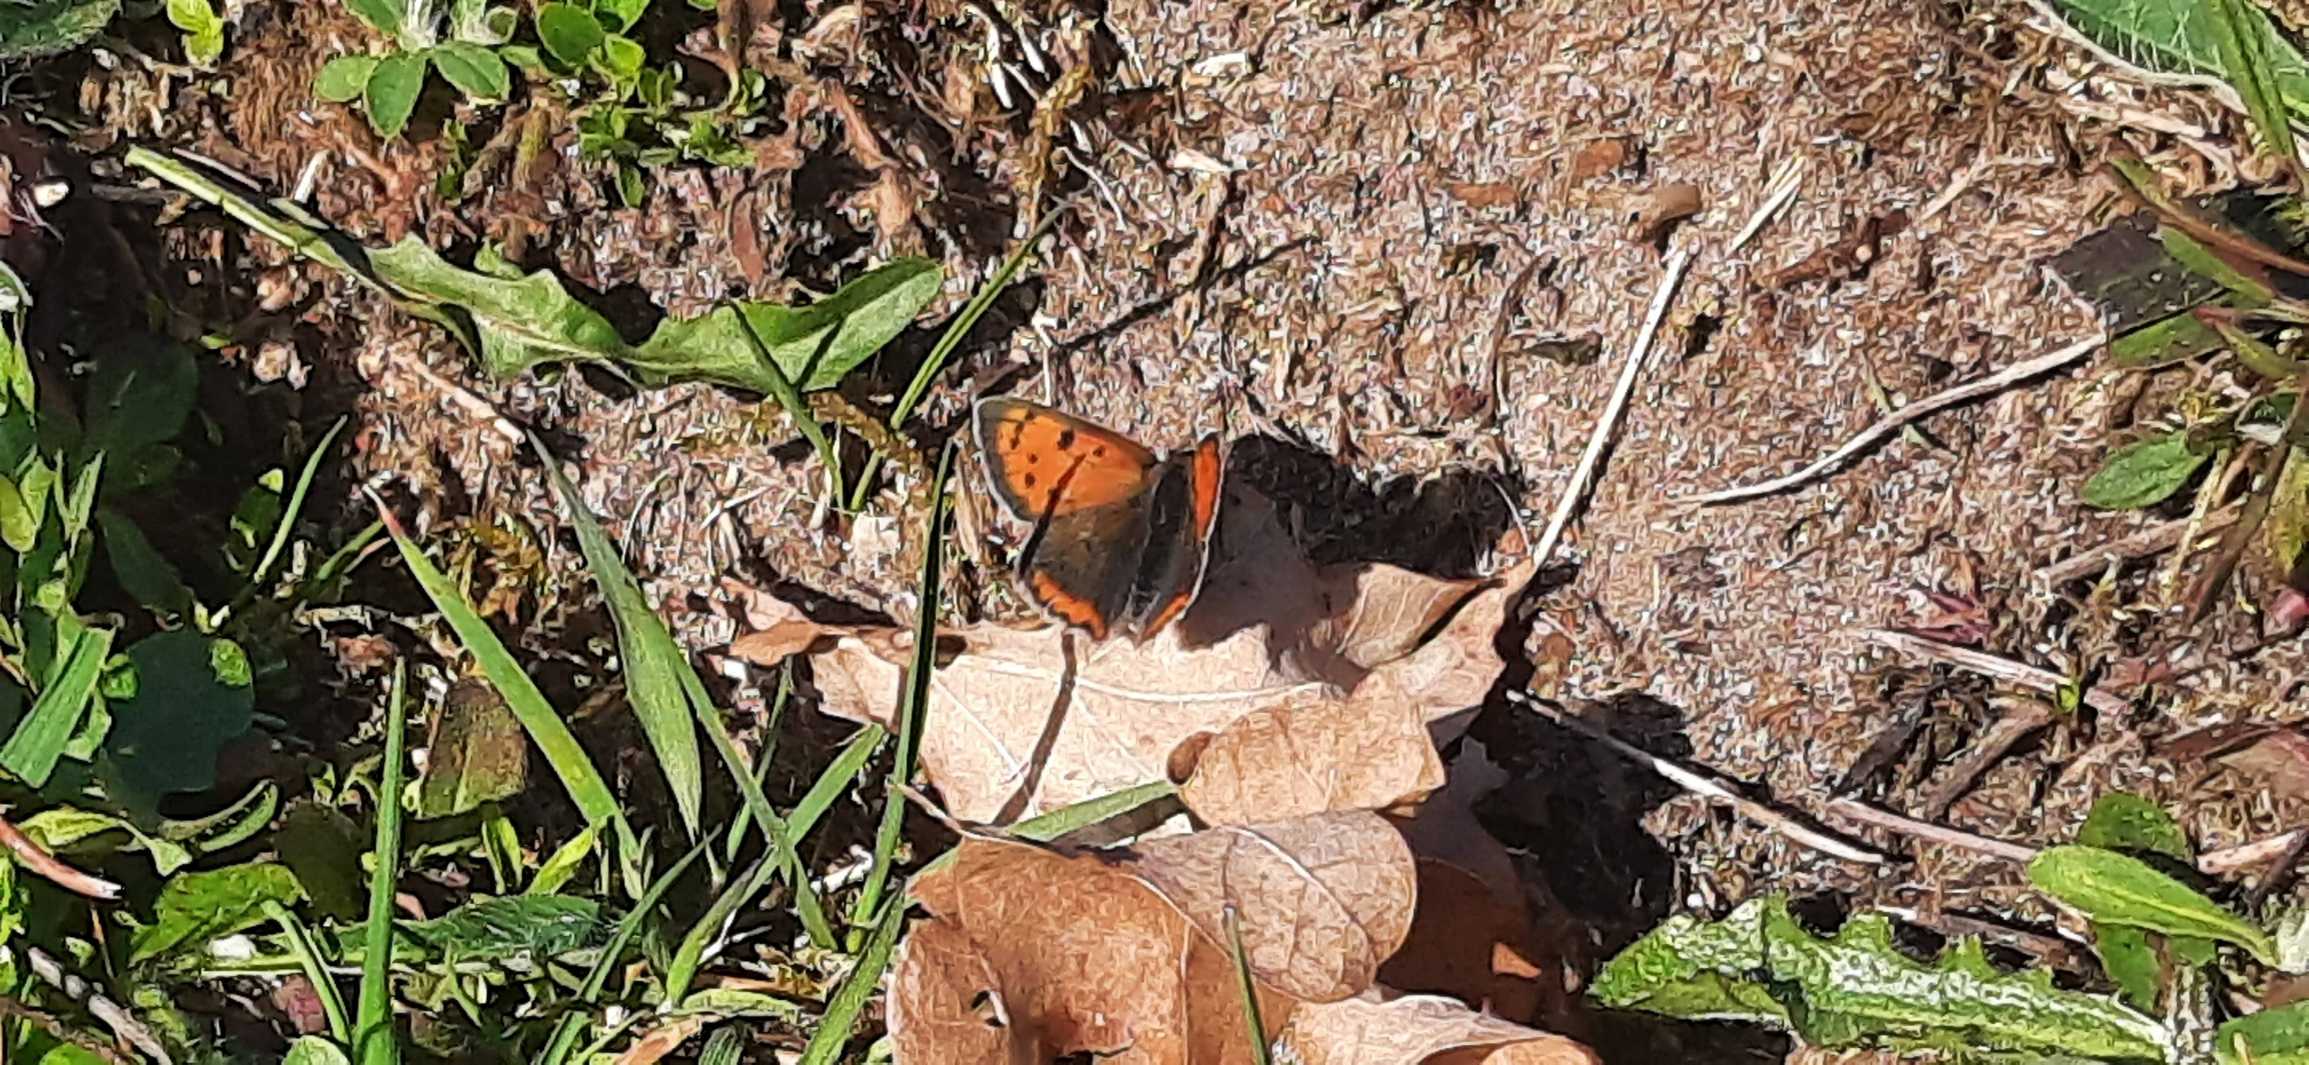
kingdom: Animalia
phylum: Arthropoda
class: Insecta
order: Lepidoptera
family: Lycaenidae
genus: Lycaena
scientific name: Lycaena phlaeas
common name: Lille ildfugl
